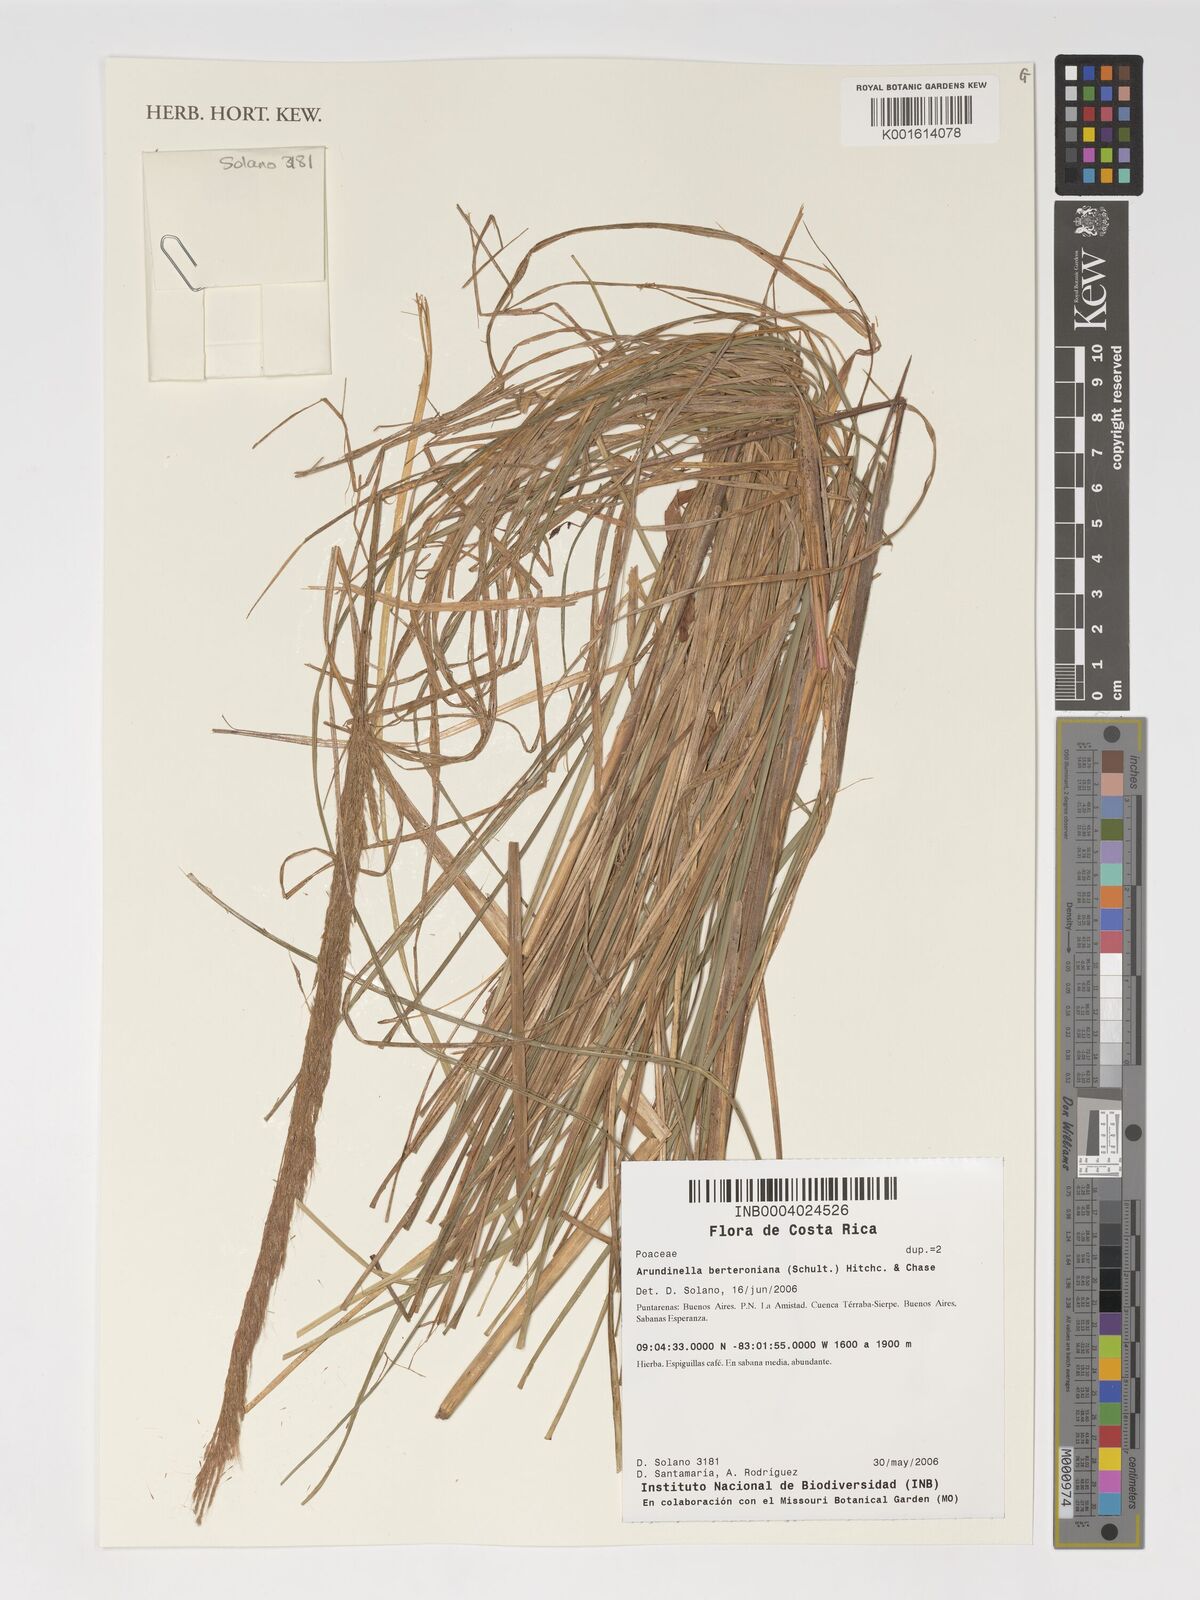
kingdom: Plantae
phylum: Tracheophyta
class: Liliopsida
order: Poales
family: Poaceae
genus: Arundinella
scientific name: Arundinella berteroniana
